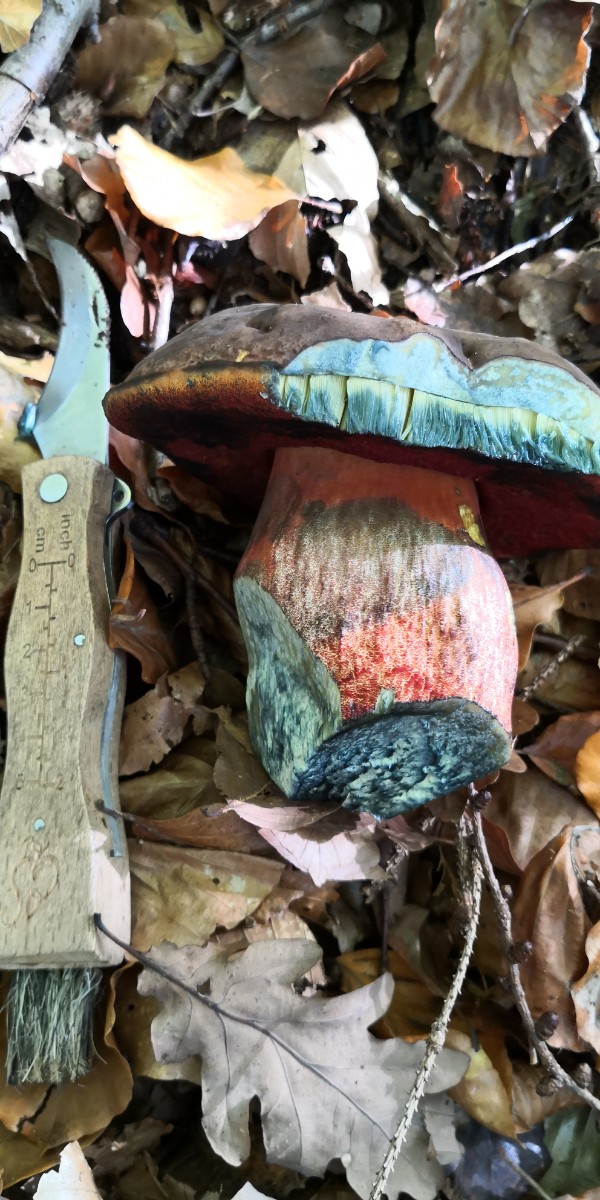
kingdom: Fungi
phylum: Basidiomycota
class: Agaricomycetes
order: Boletales
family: Boletaceae
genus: Neoboletus
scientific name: Neoboletus erythropus
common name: punktstokket indigorørhat
